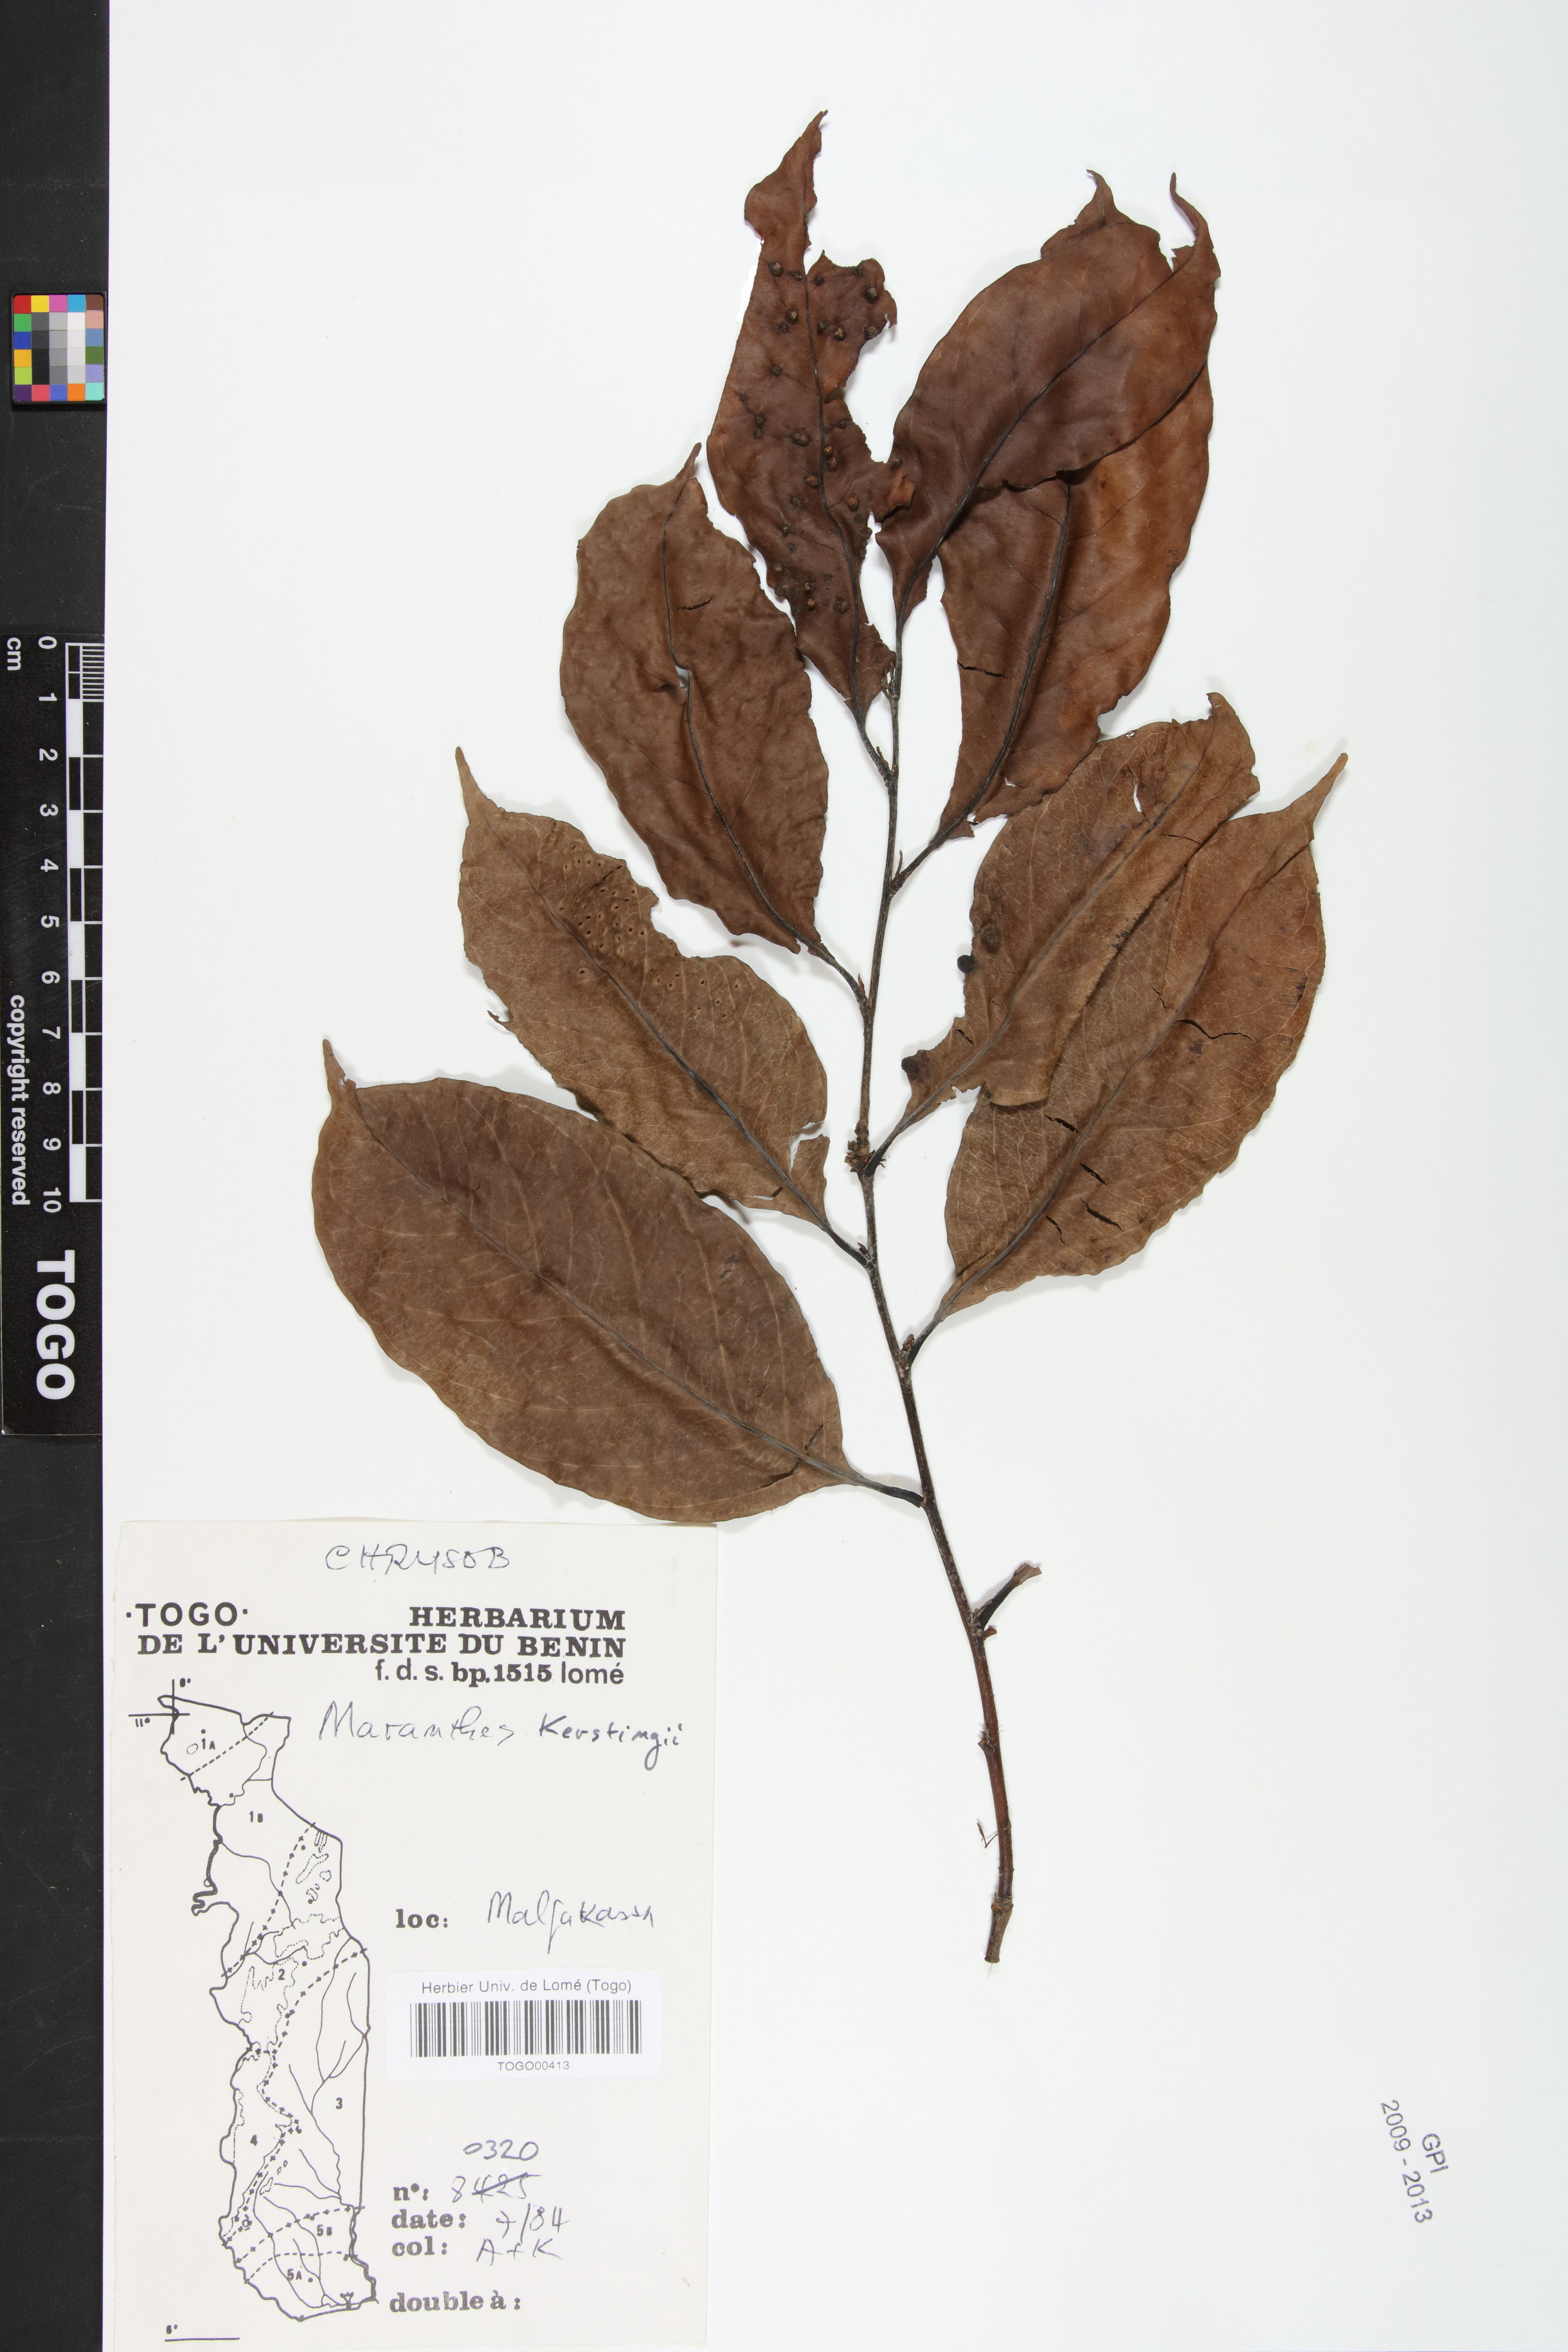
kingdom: Plantae
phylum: Tracheophyta
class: Magnoliopsida
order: Malpighiales
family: Chrysobalanaceae
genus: Maranthes
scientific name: Maranthes kerstingii
